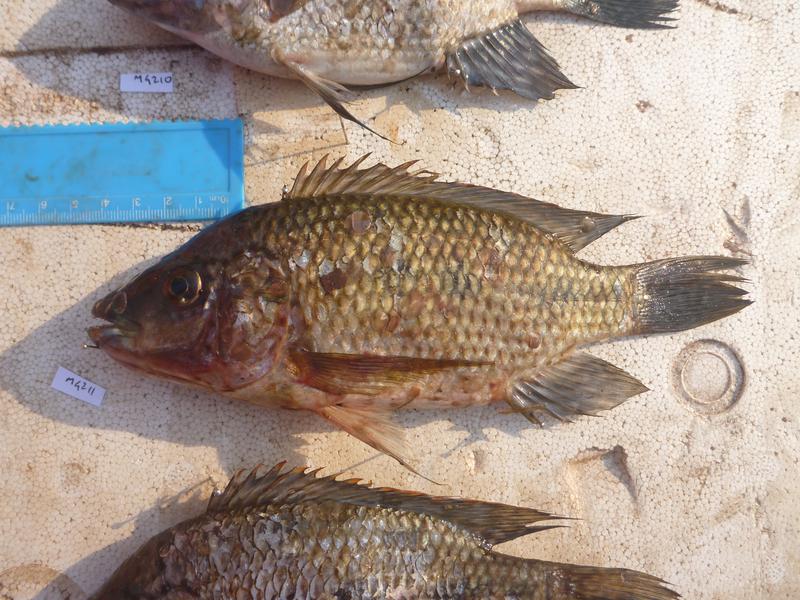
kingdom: Animalia
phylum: Chordata
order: Perciformes
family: Cichlidae
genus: Oreochromis
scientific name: Oreochromis karomo
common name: Karomo
